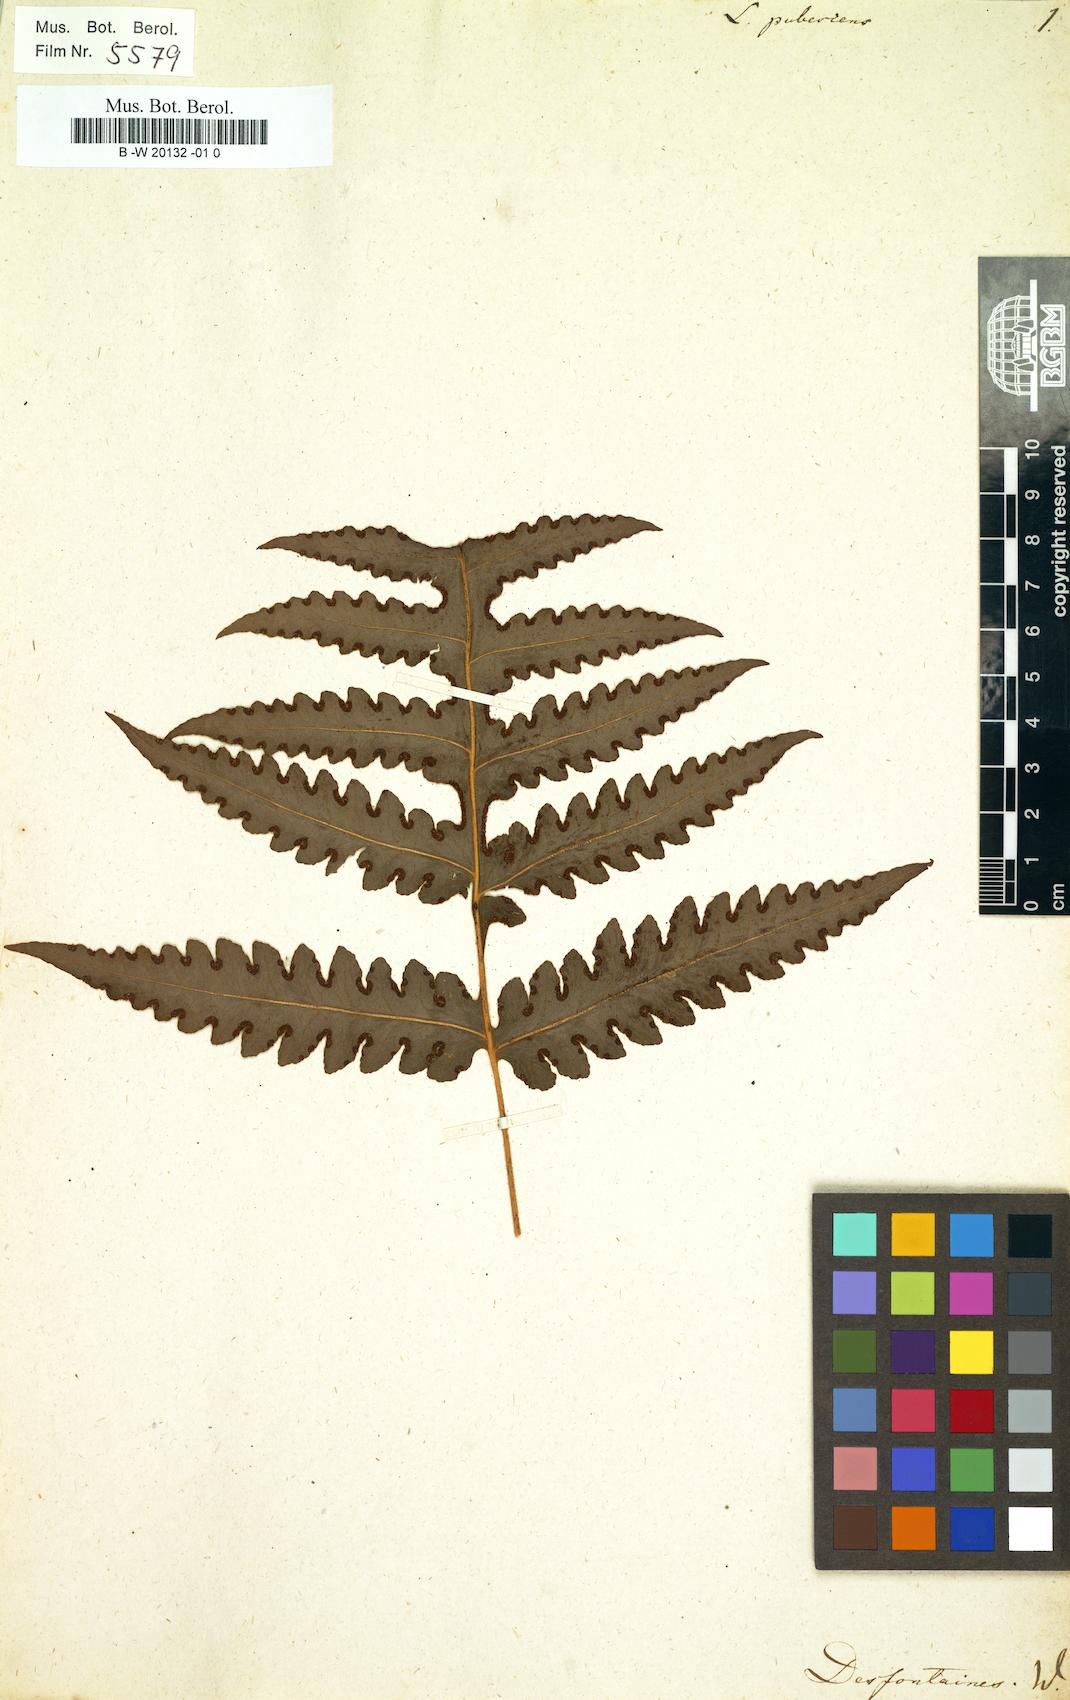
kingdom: Plantae
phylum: Tracheophyta
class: Polypodiopsida
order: Polypodiales
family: Lonchitidaceae
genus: Lonchitis
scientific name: Lonchitis pubescens
